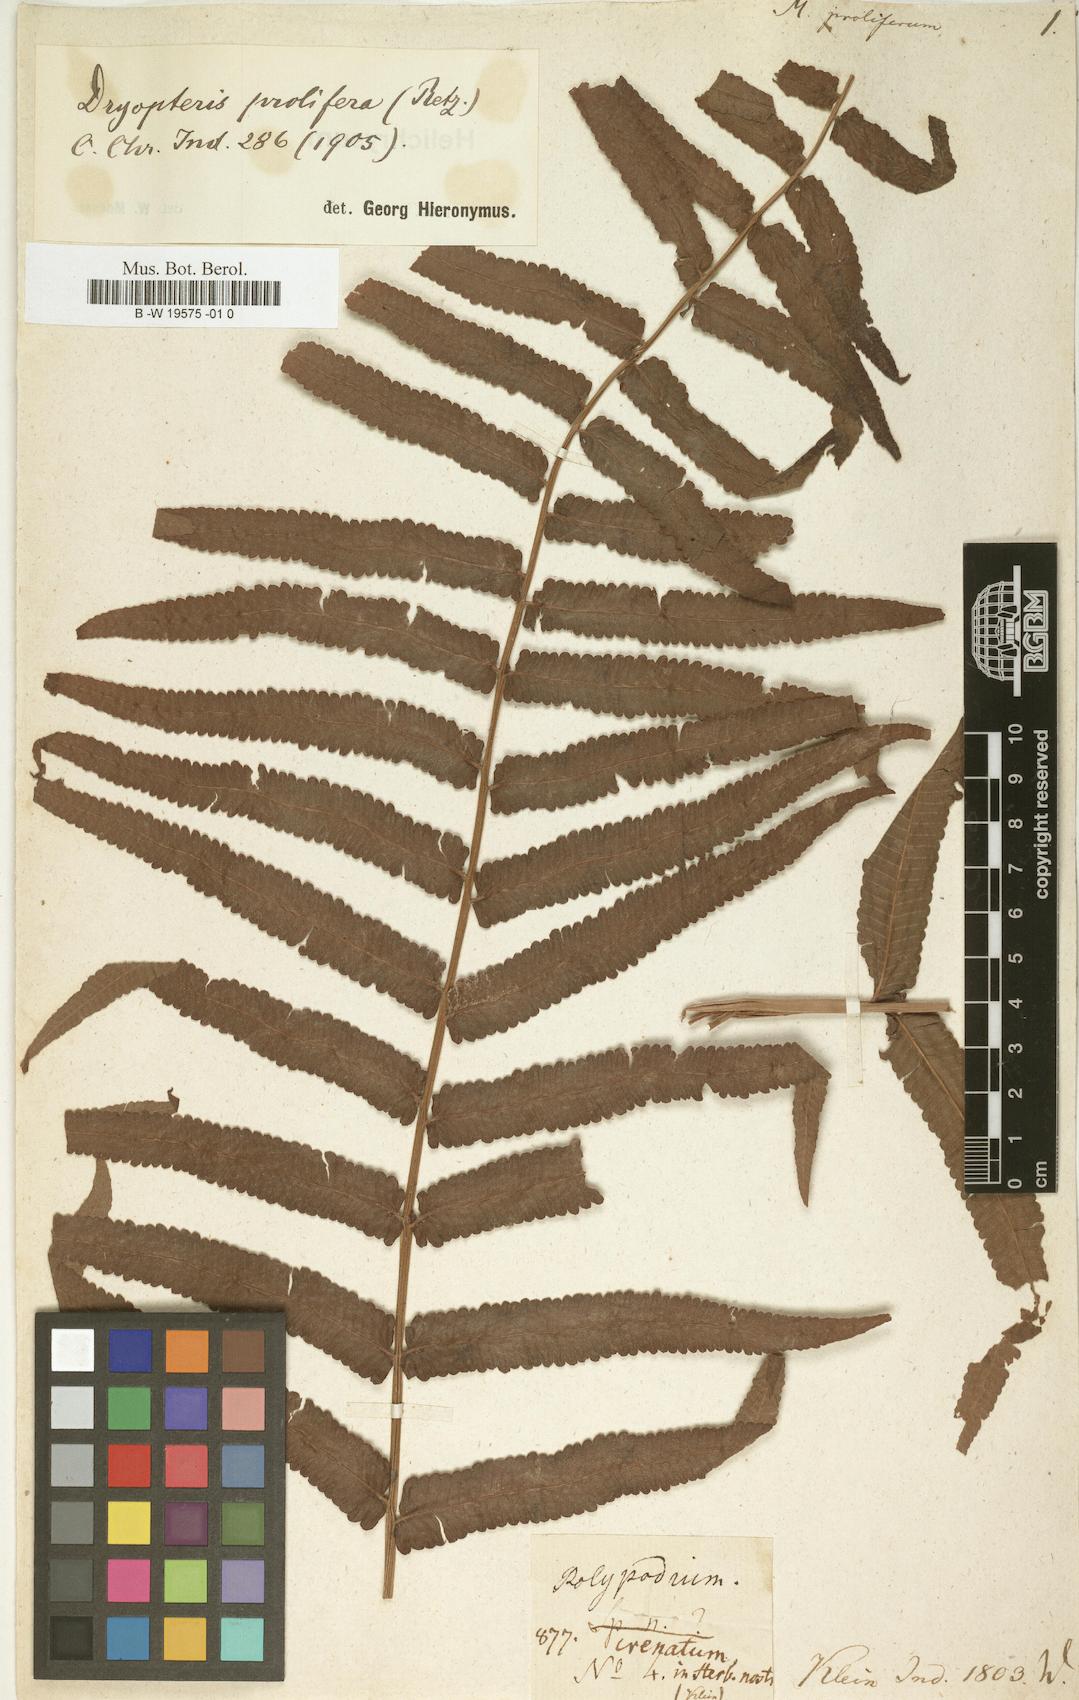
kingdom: Plantae
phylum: Tracheophyta
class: Polypodiopsida
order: Polypodiales
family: Thelypteridaceae
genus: Ampelopteris
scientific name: Ampelopteris prolifera
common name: Riverine scrambler
